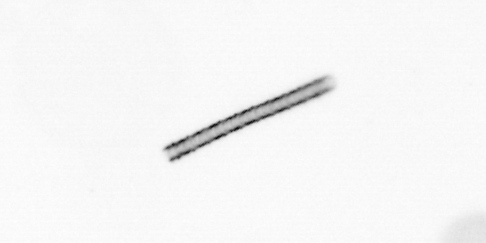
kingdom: Chromista
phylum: Ochrophyta
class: Bacillariophyceae
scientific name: Bacillariophyceae
